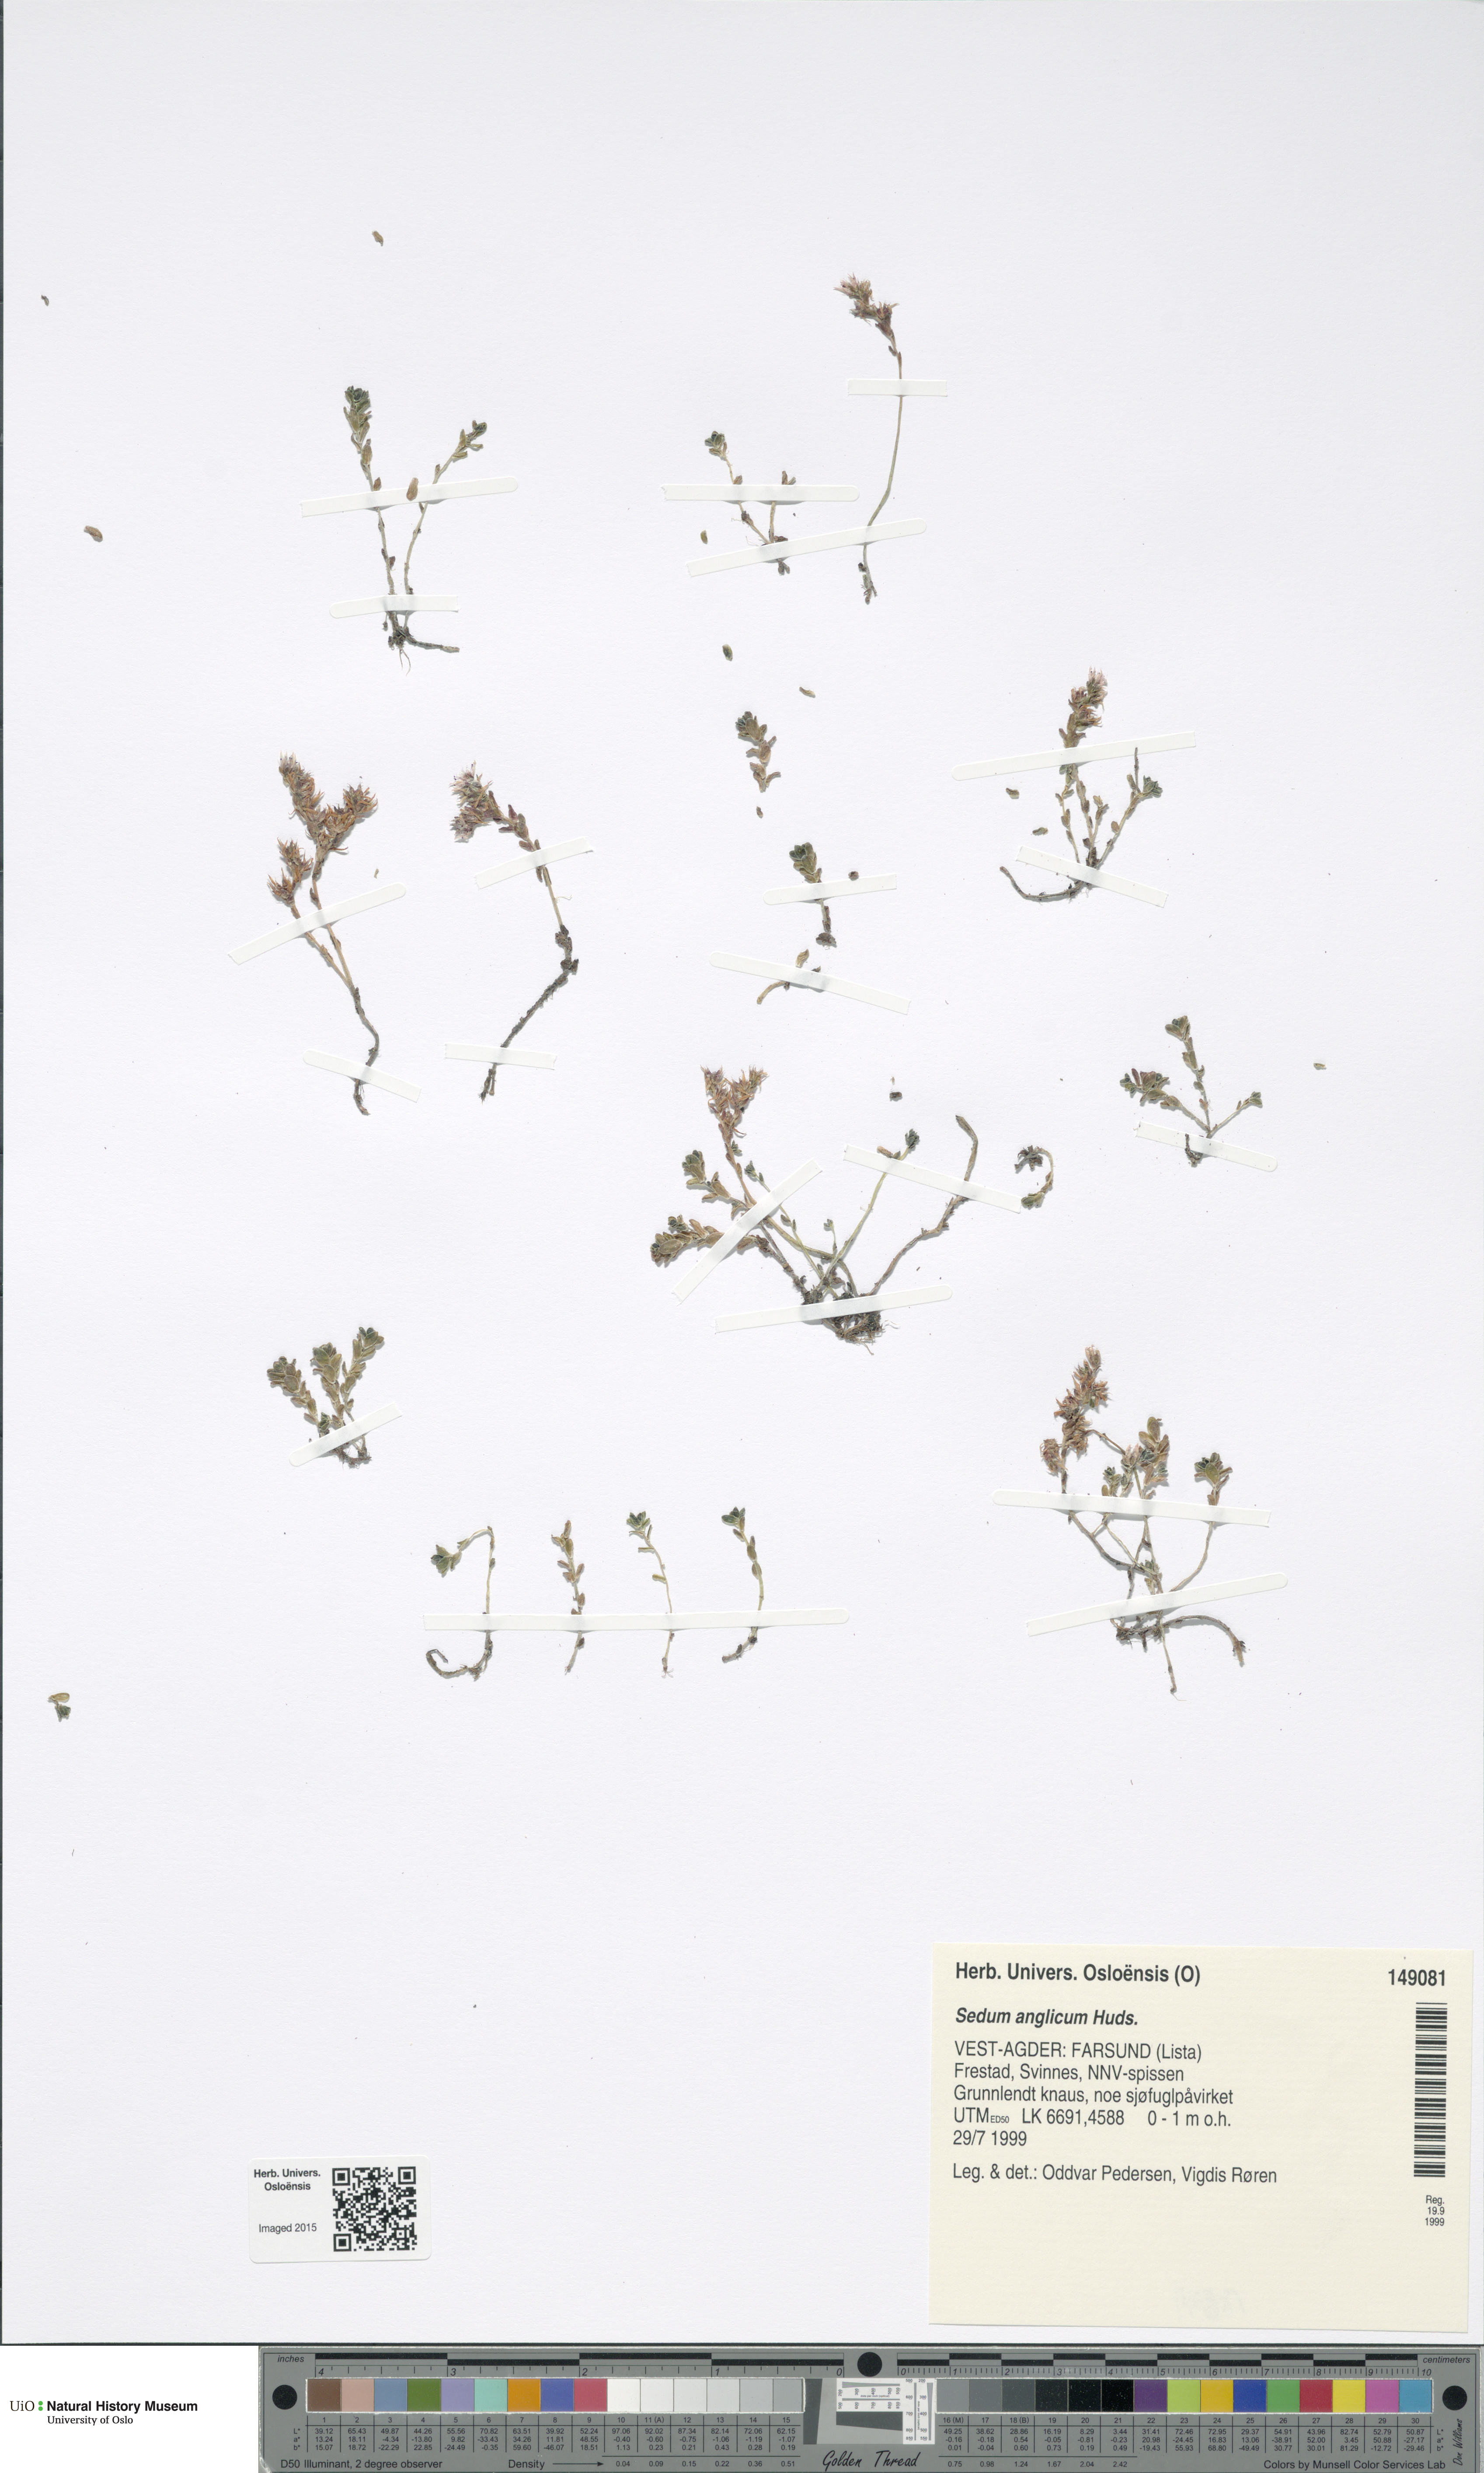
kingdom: Plantae
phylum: Tracheophyta
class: Magnoliopsida
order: Saxifragales
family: Crassulaceae
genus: Sedum
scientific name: Sedum anglicum
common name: English stonecrop
